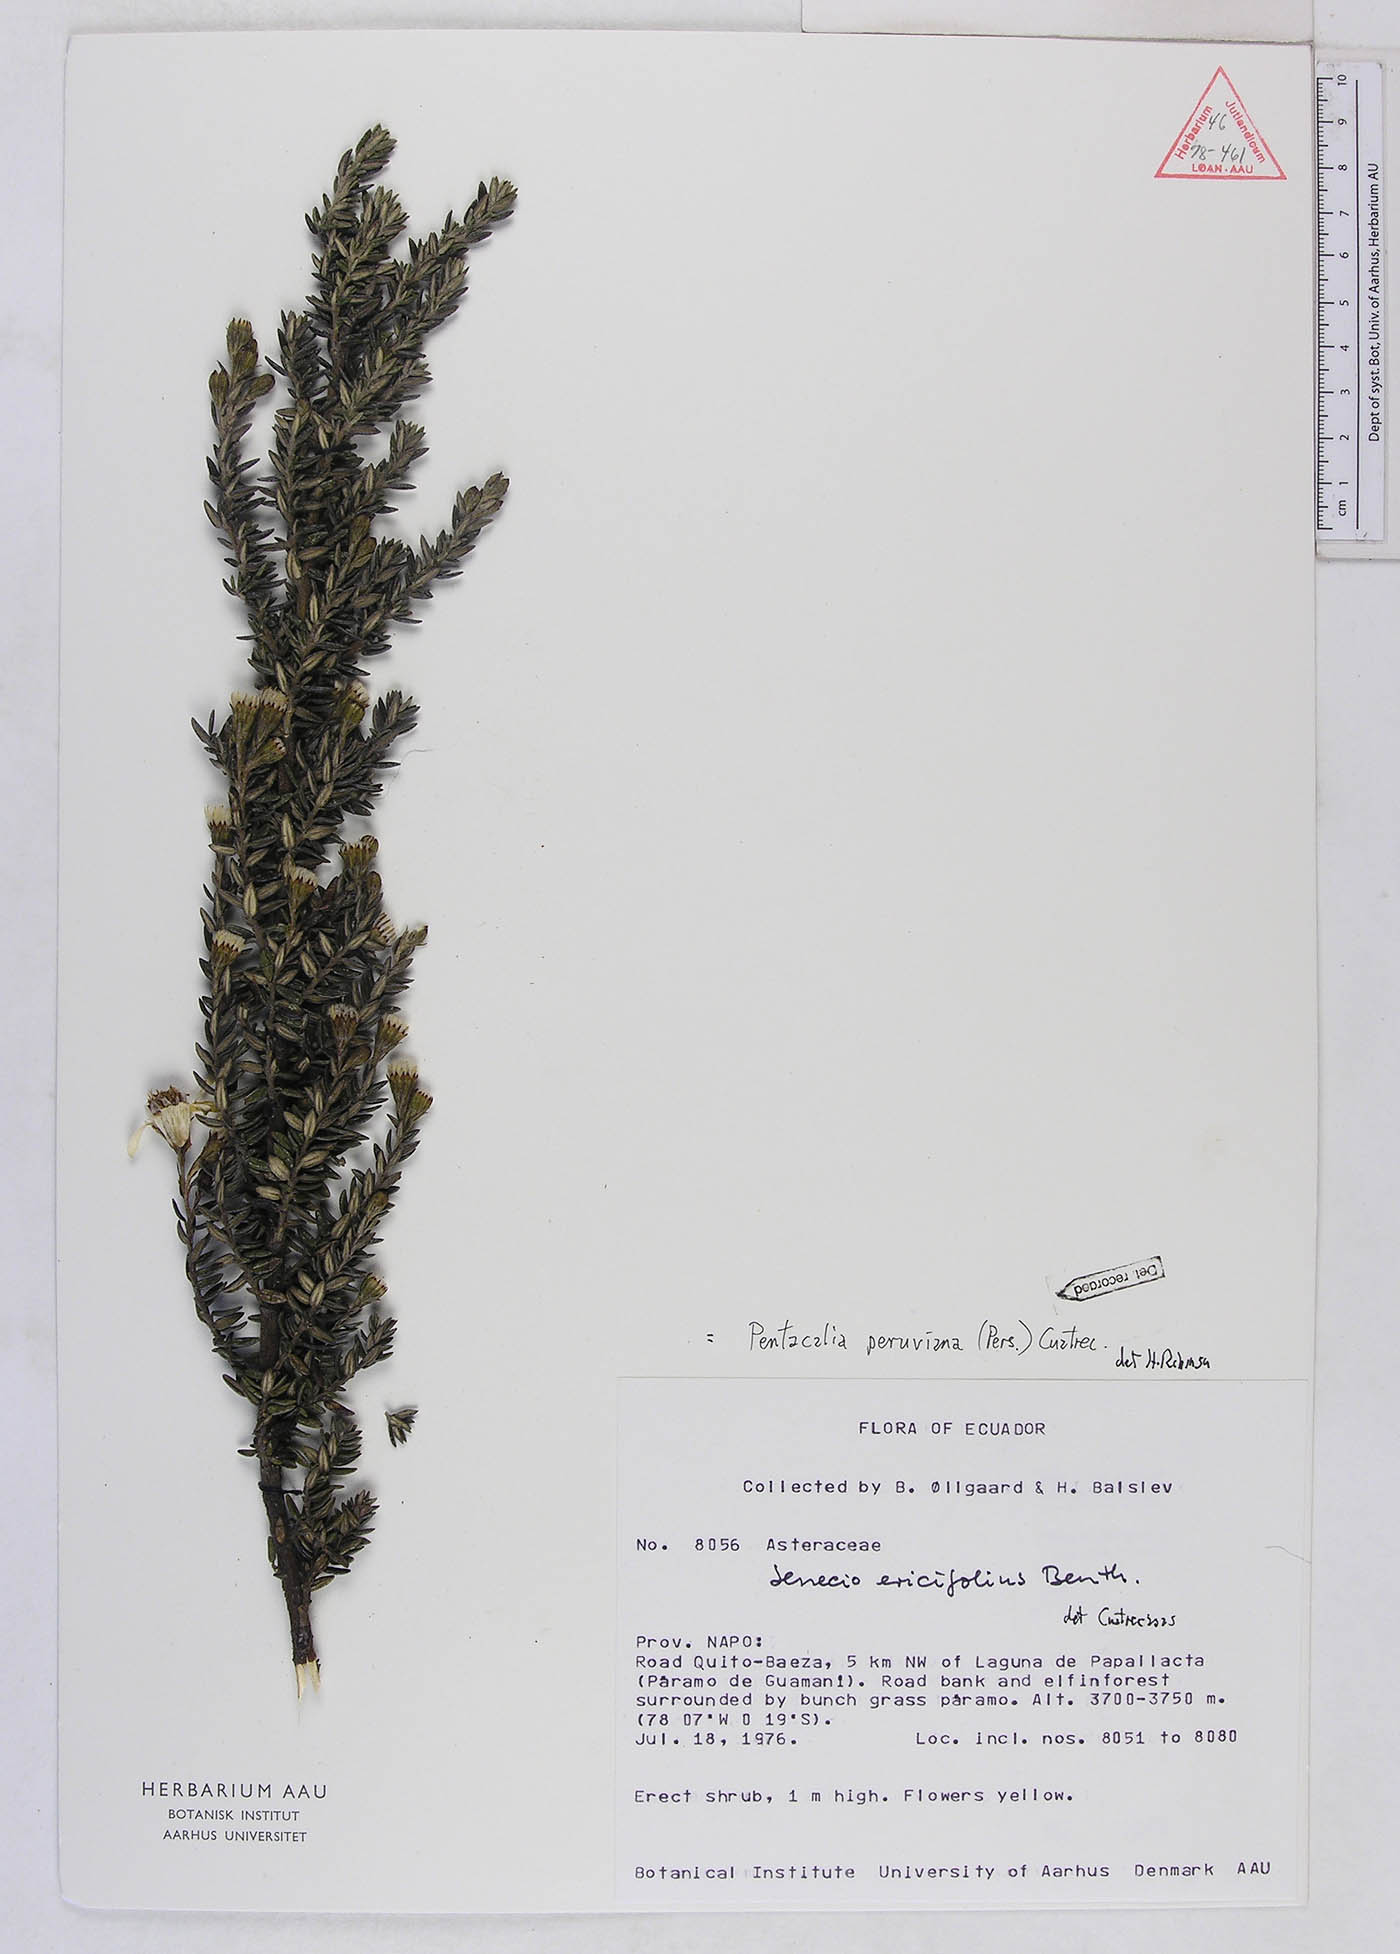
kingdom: Plantae
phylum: Tracheophyta
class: Magnoliopsida
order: Asterales
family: Asteraceae
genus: Monticalia
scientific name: Monticalia peruviana
